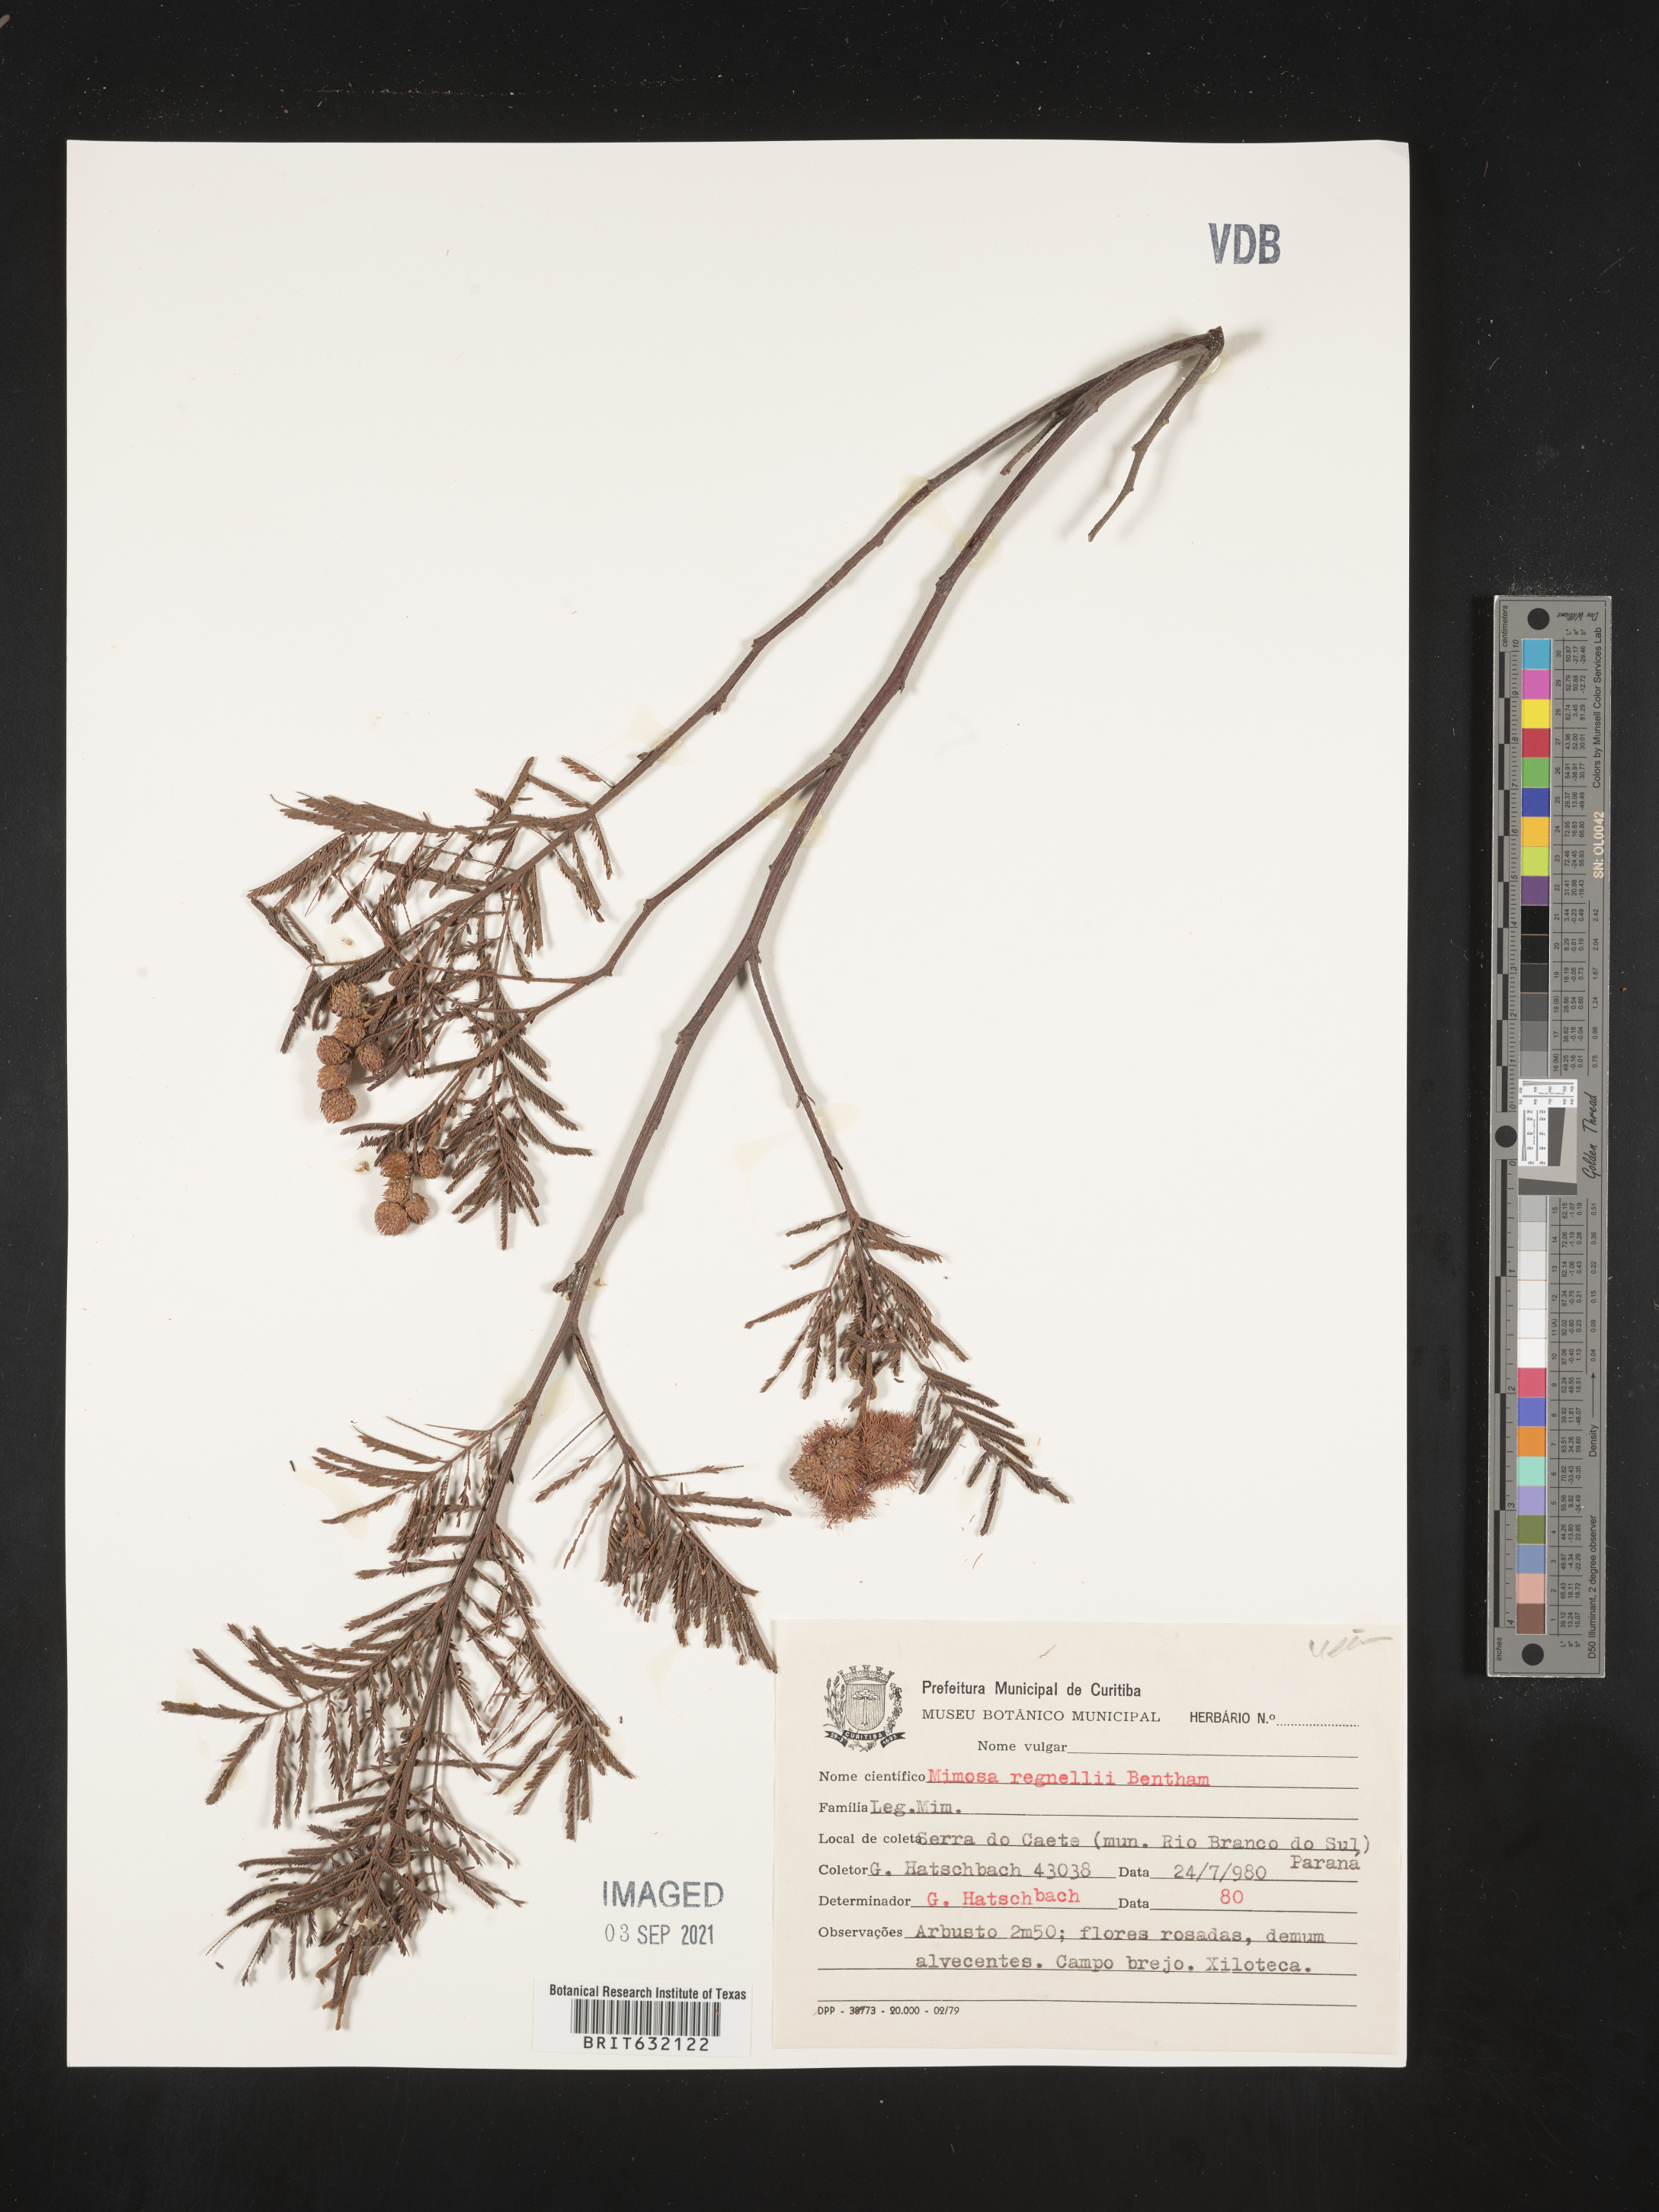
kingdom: Plantae
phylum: Tracheophyta
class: Magnoliopsida
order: Fabales
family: Fabaceae
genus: Mimosa
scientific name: Mimosa
